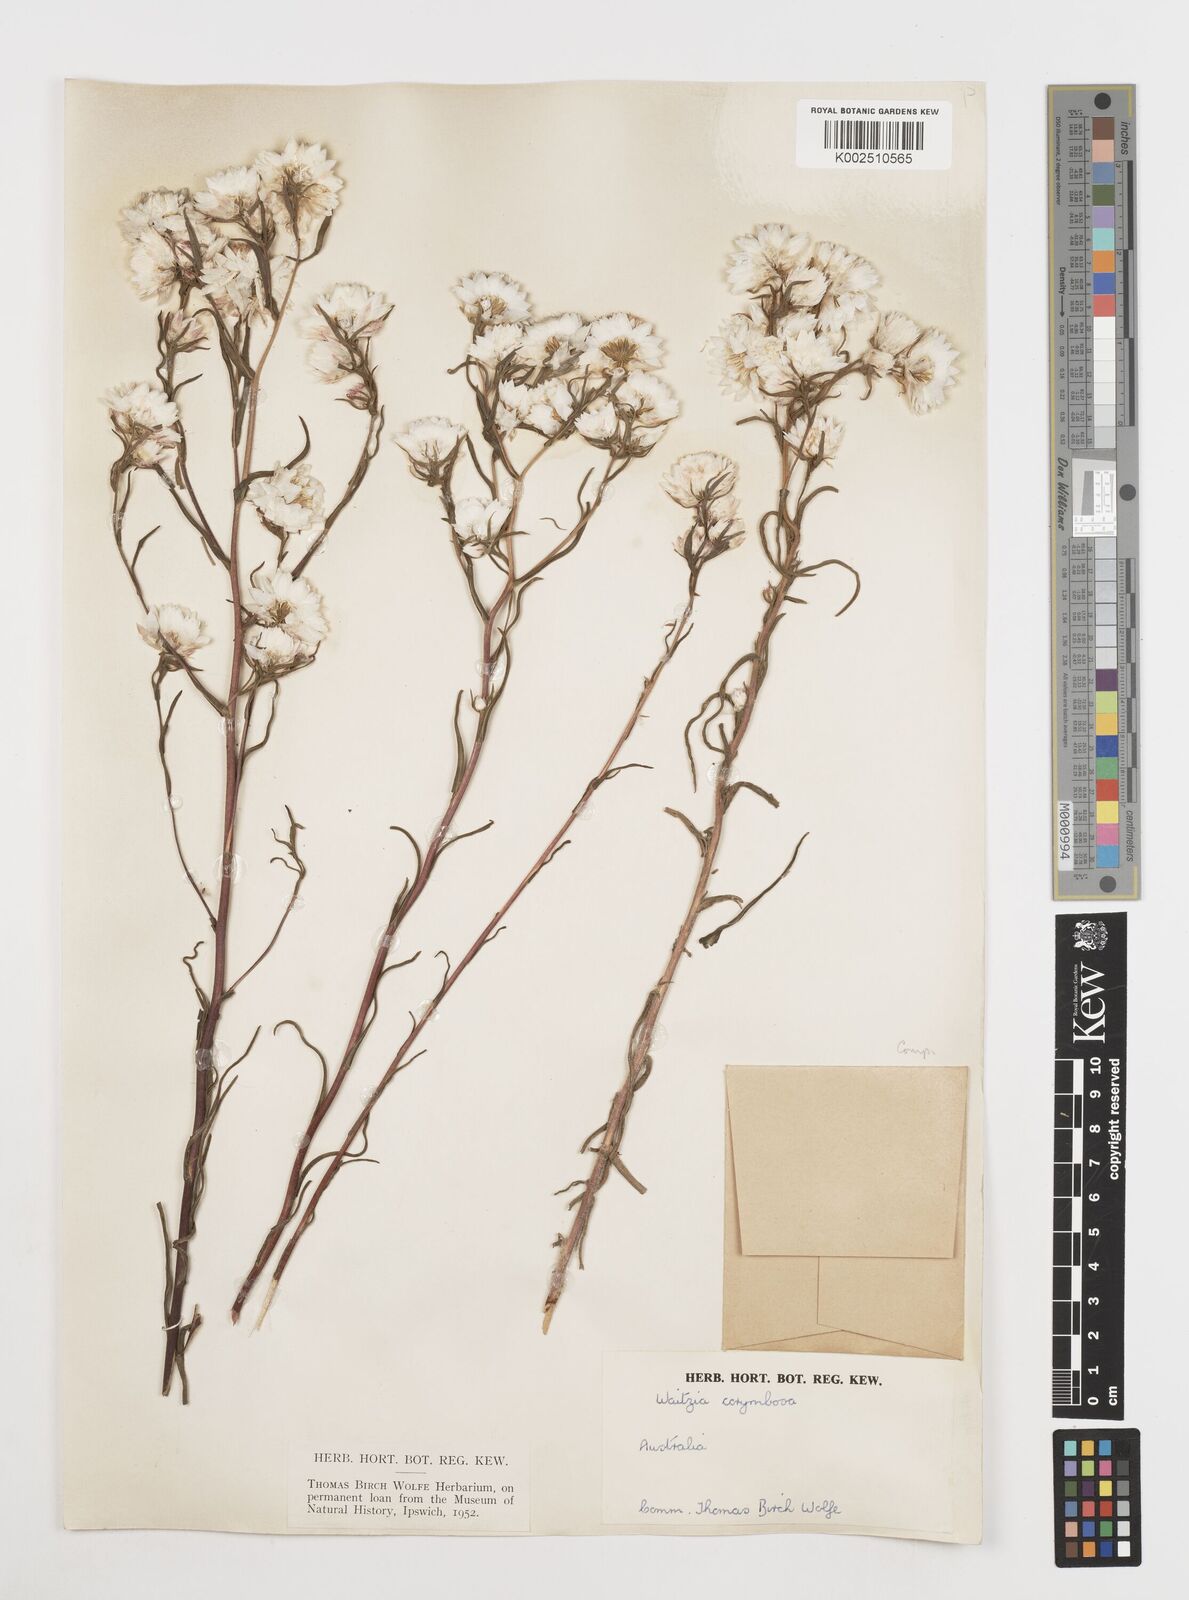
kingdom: Plantae
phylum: Tracheophyta
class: Magnoliopsida
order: Asterales
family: Asteraceae
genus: Waitzia
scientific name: Waitzia acuminata
